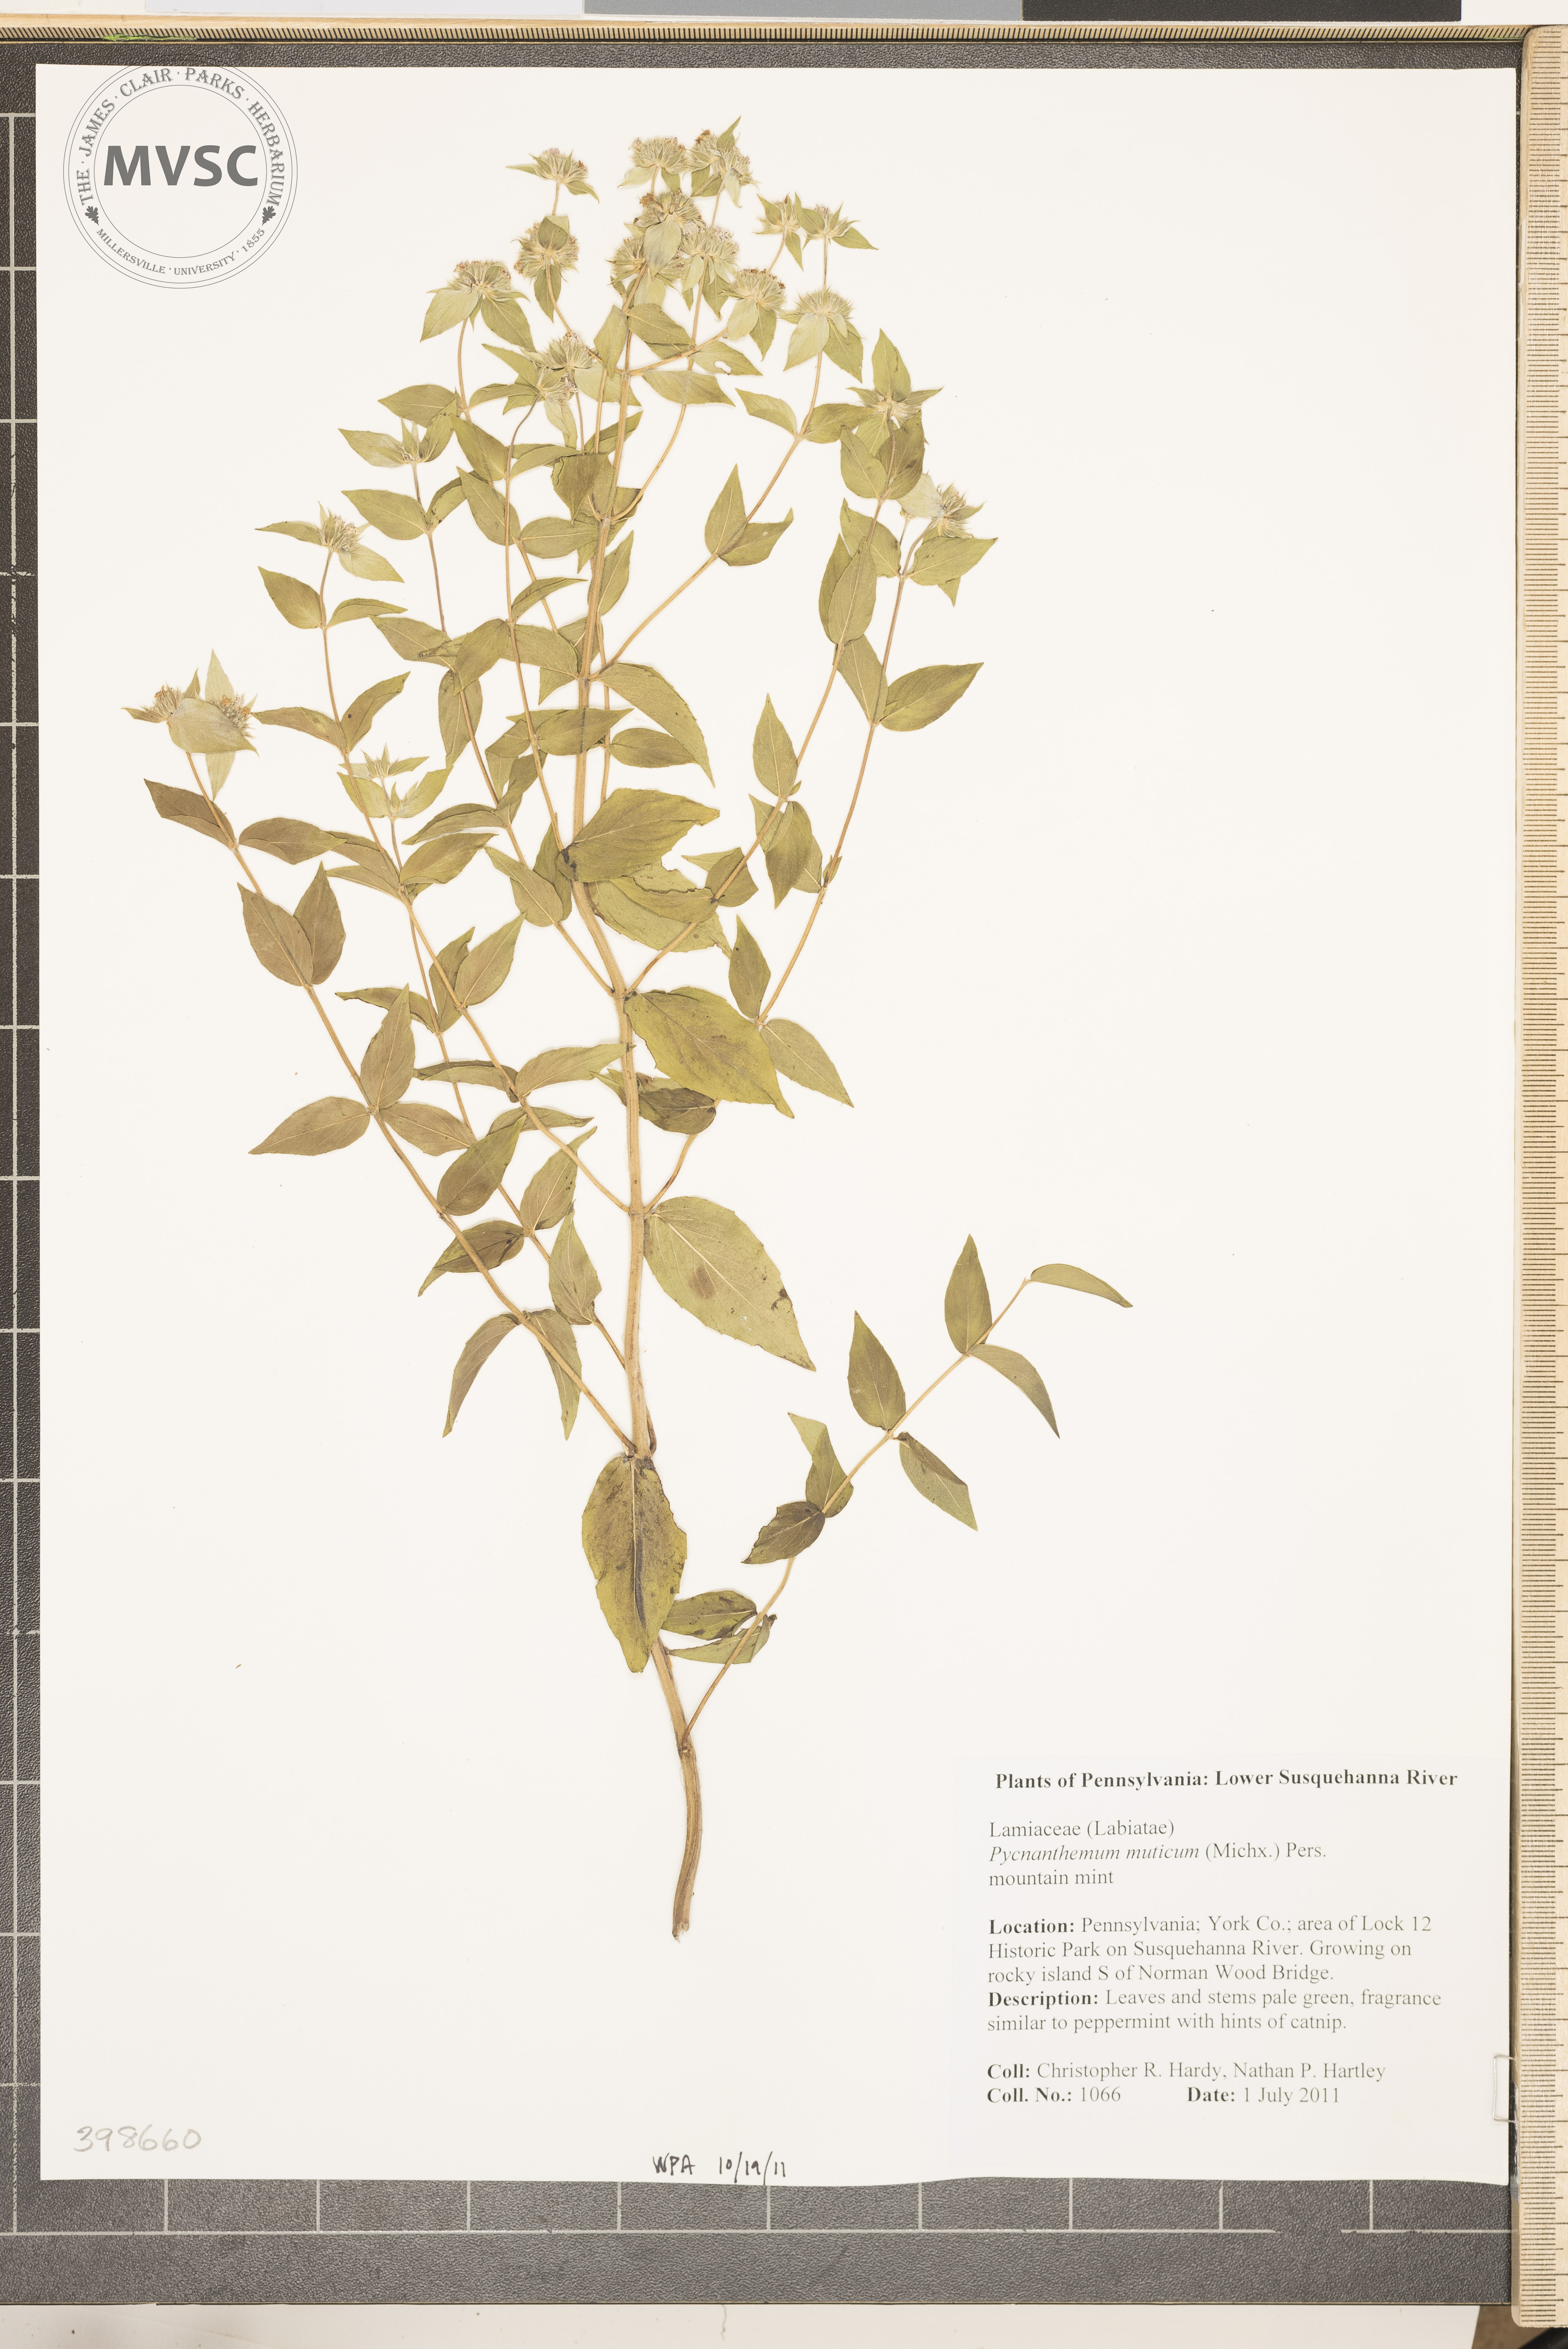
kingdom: Plantae
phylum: Tracheophyta
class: Magnoliopsida
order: Lamiales
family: Lamiaceae
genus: Pycnanthemum
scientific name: Pycnanthemum muticum
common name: Mountain-mint
